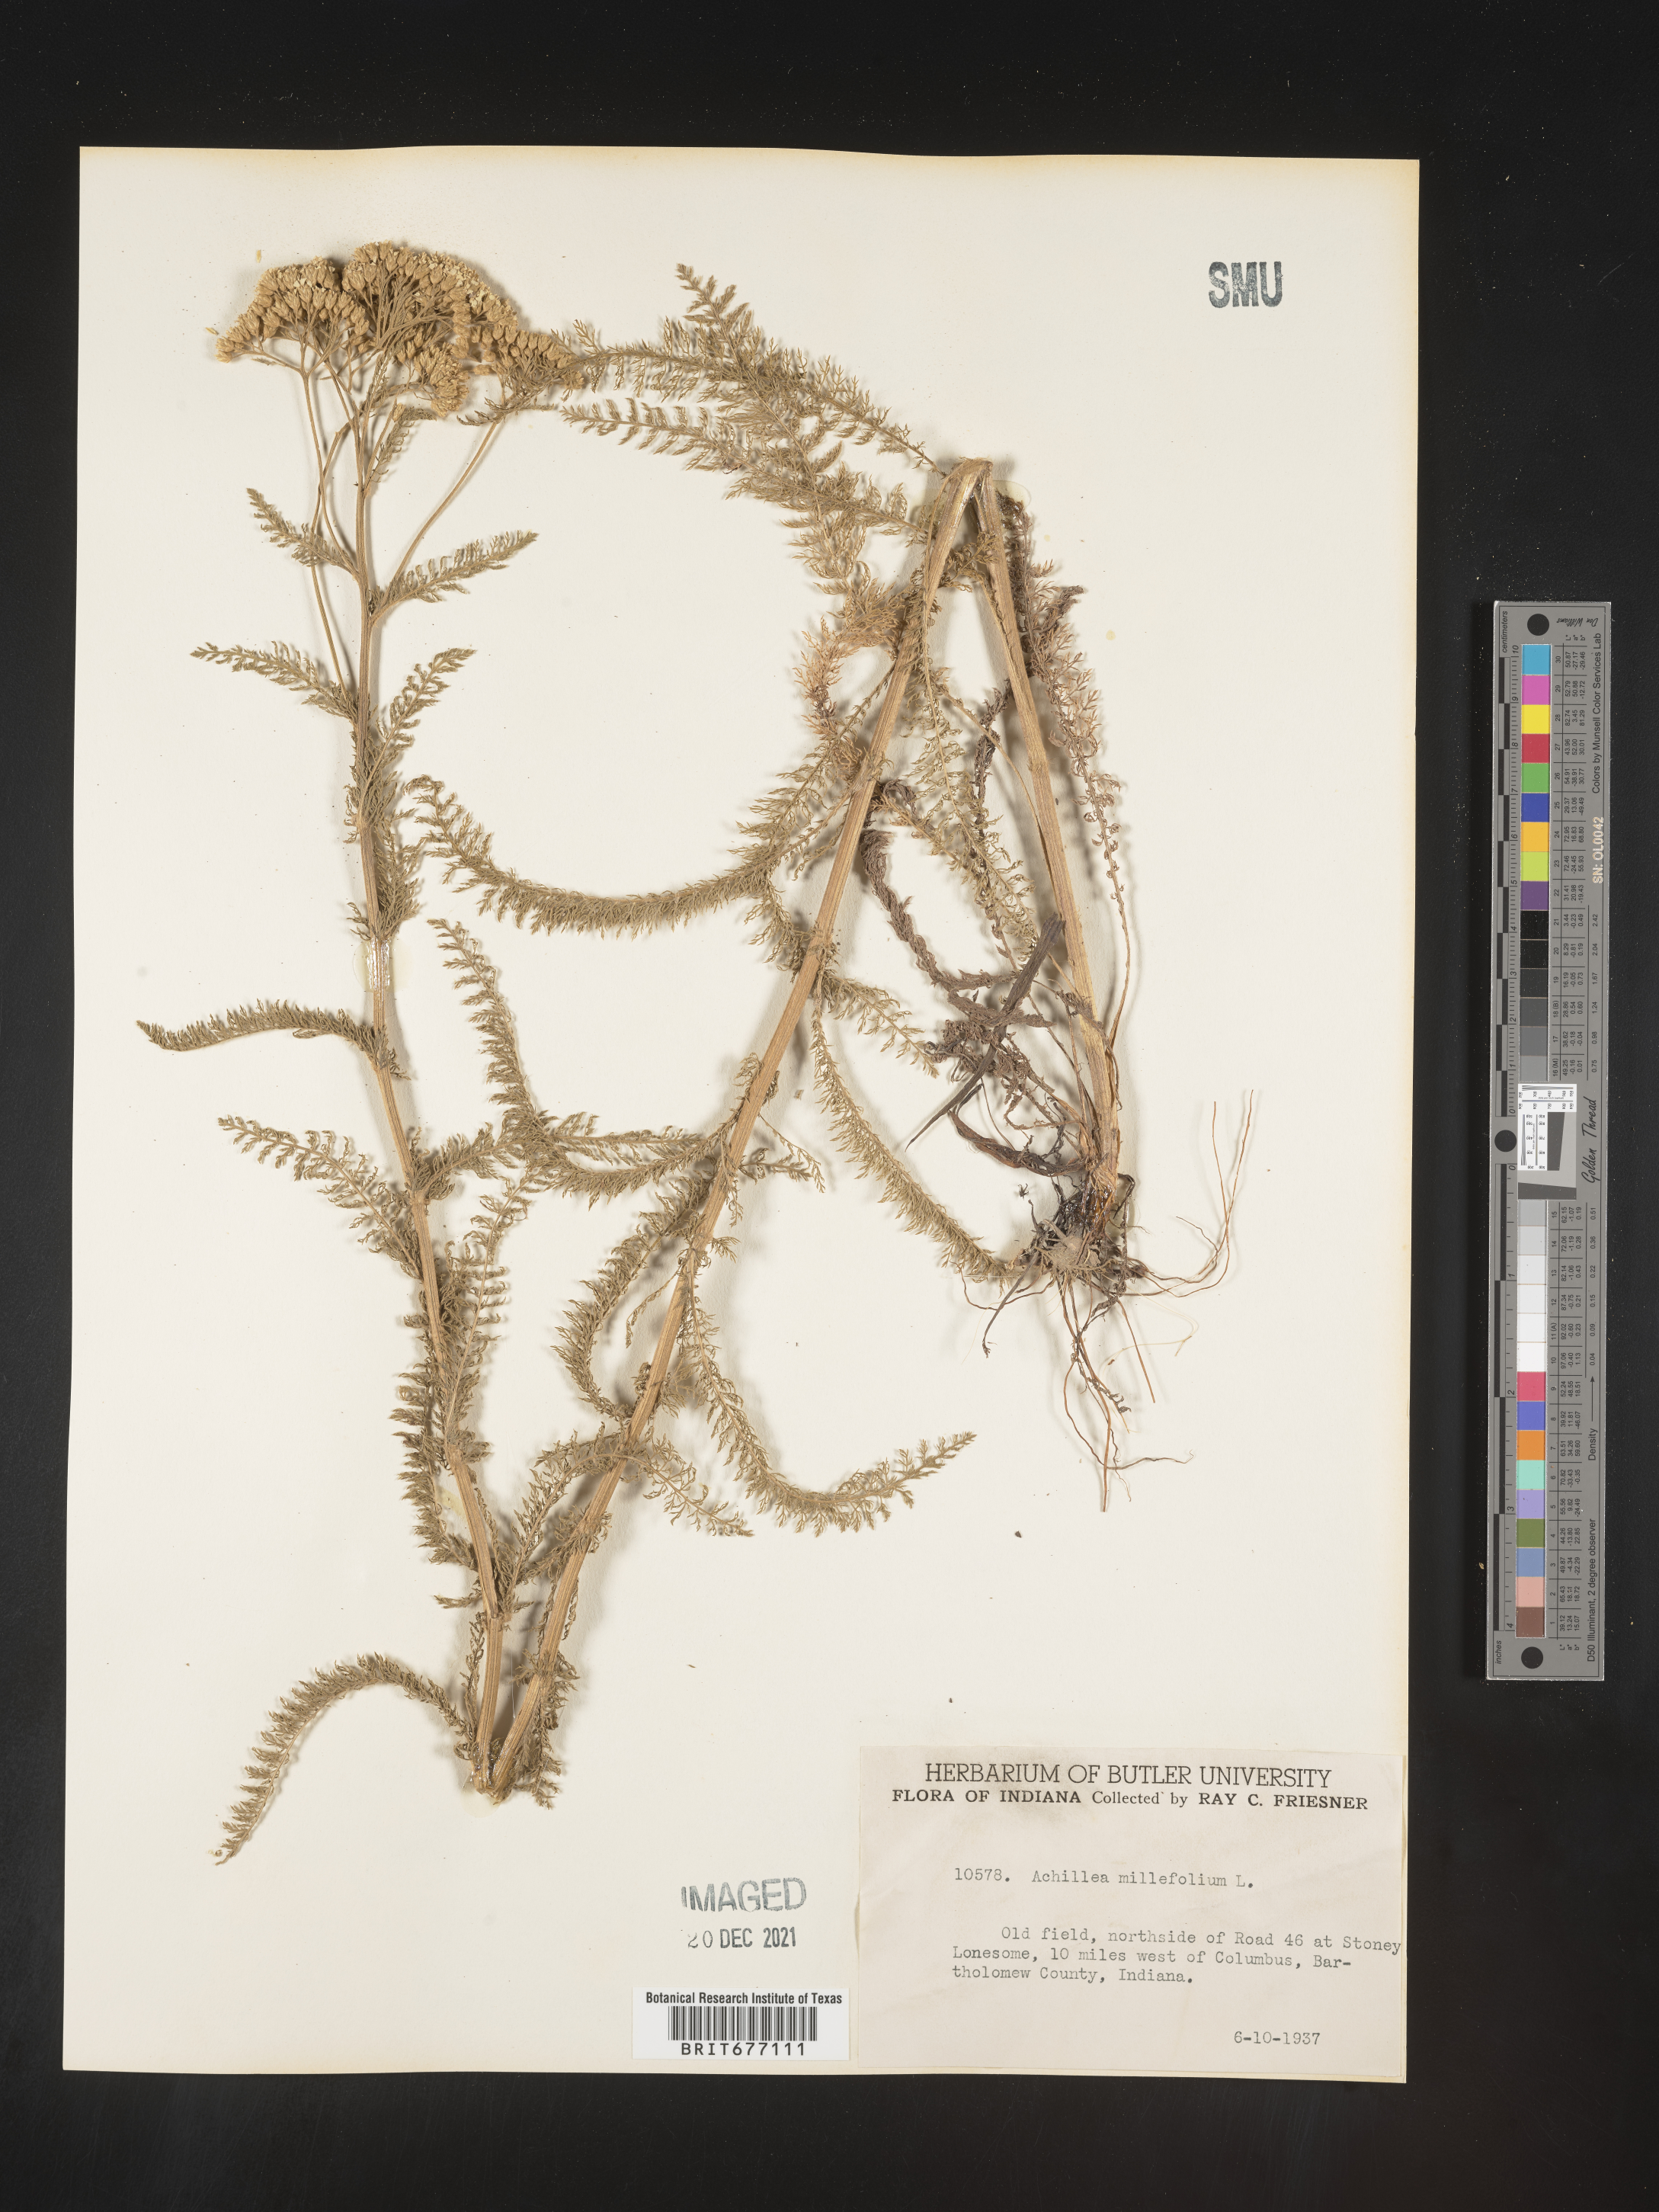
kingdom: Plantae
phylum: Tracheophyta
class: Magnoliopsida
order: Asterales
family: Asteraceae
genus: Achillea
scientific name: Achillea millefolium
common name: Yarrow
